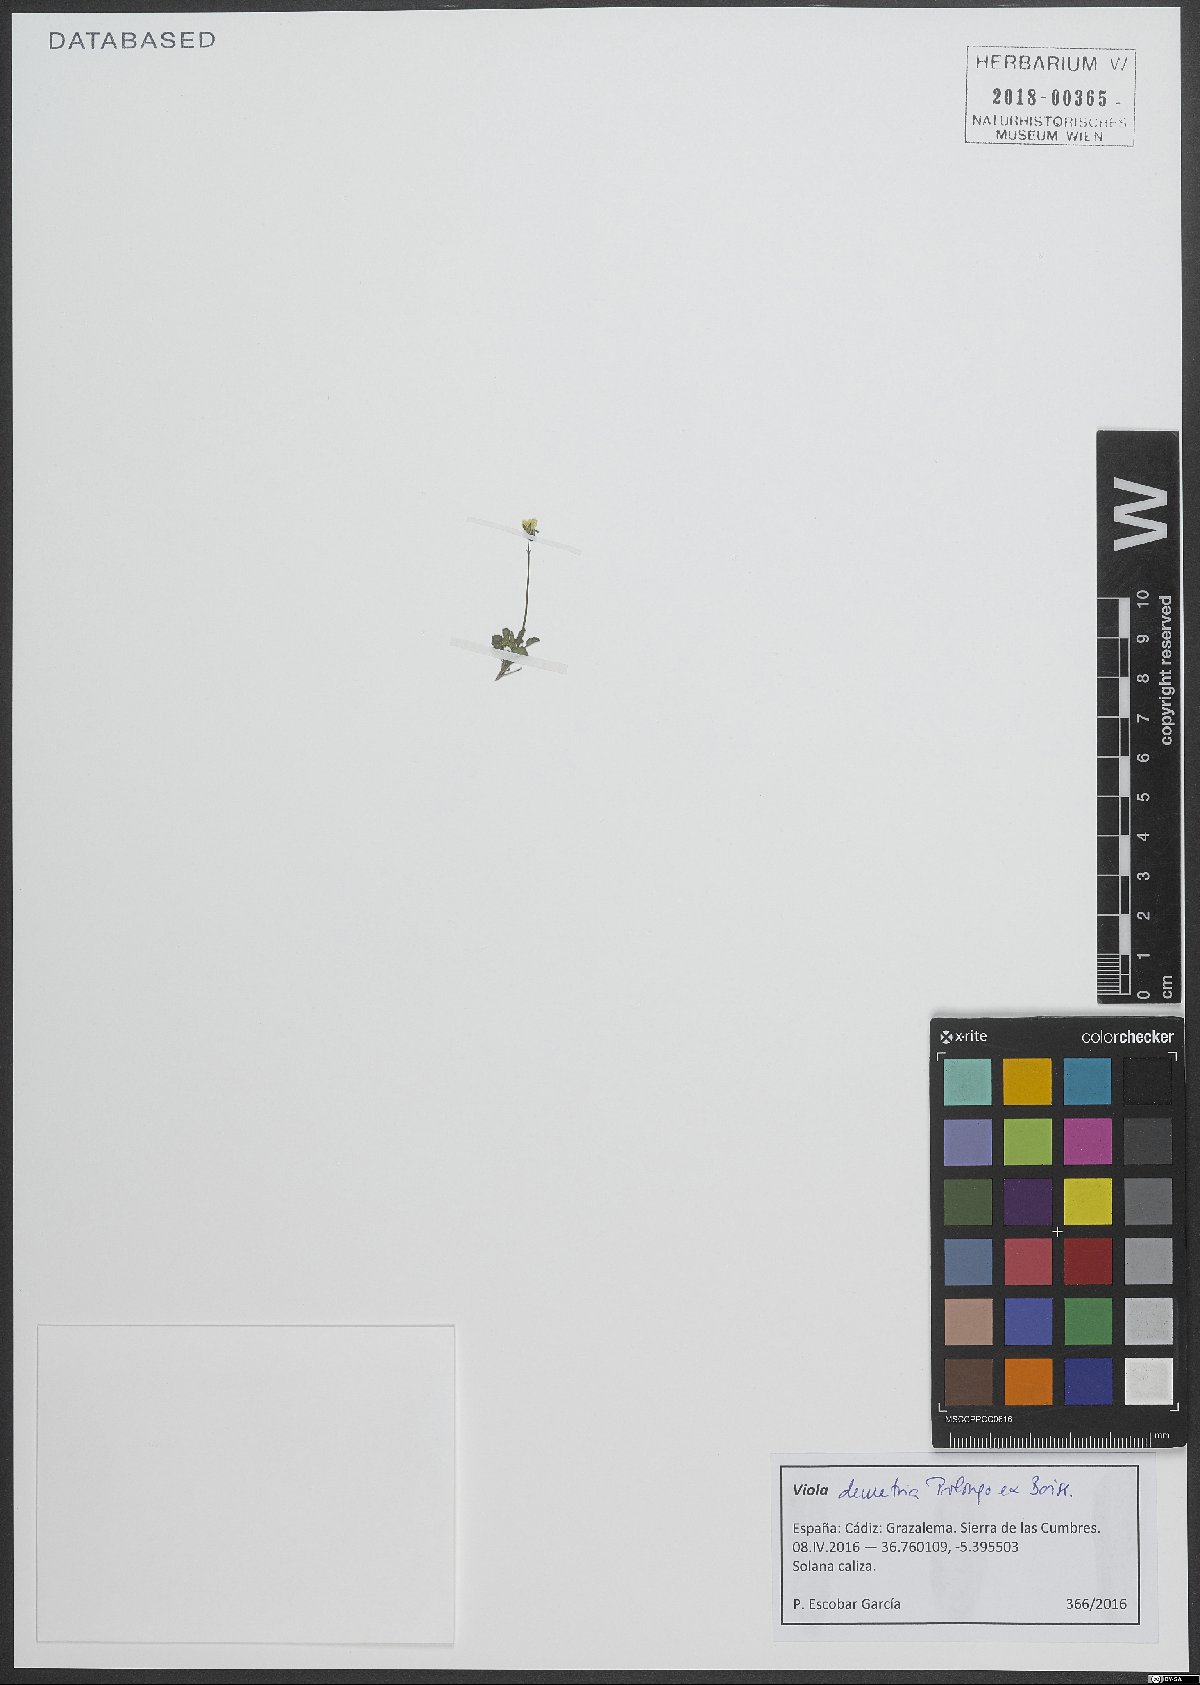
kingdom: Plantae
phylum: Tracheophyta
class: Magnoliopsida
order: Malpighiales
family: Violaceae
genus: Viola
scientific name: Viola demetria
